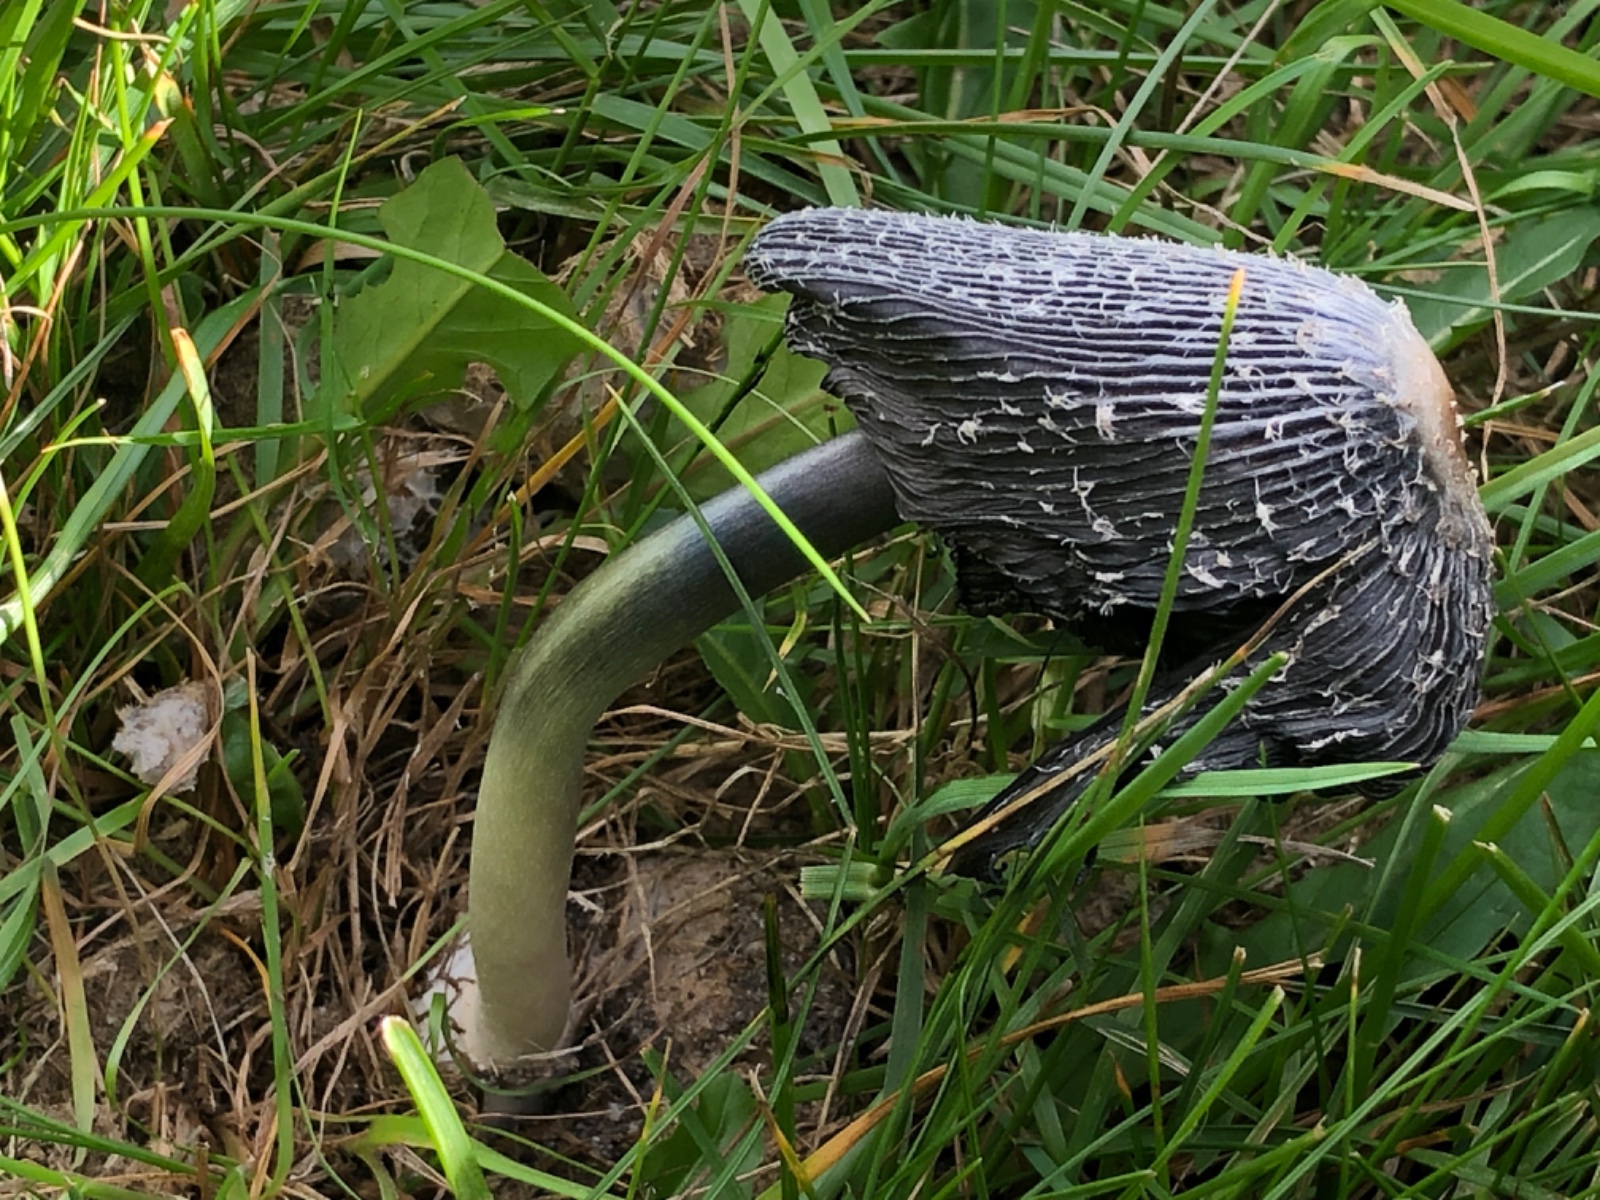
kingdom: Fungi
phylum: Basidiomycota
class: Agaricomycetes
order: Agaricales
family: Agaricaceae
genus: Coprinus
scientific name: Coprinus sterquilinus
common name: møg-parykhat
